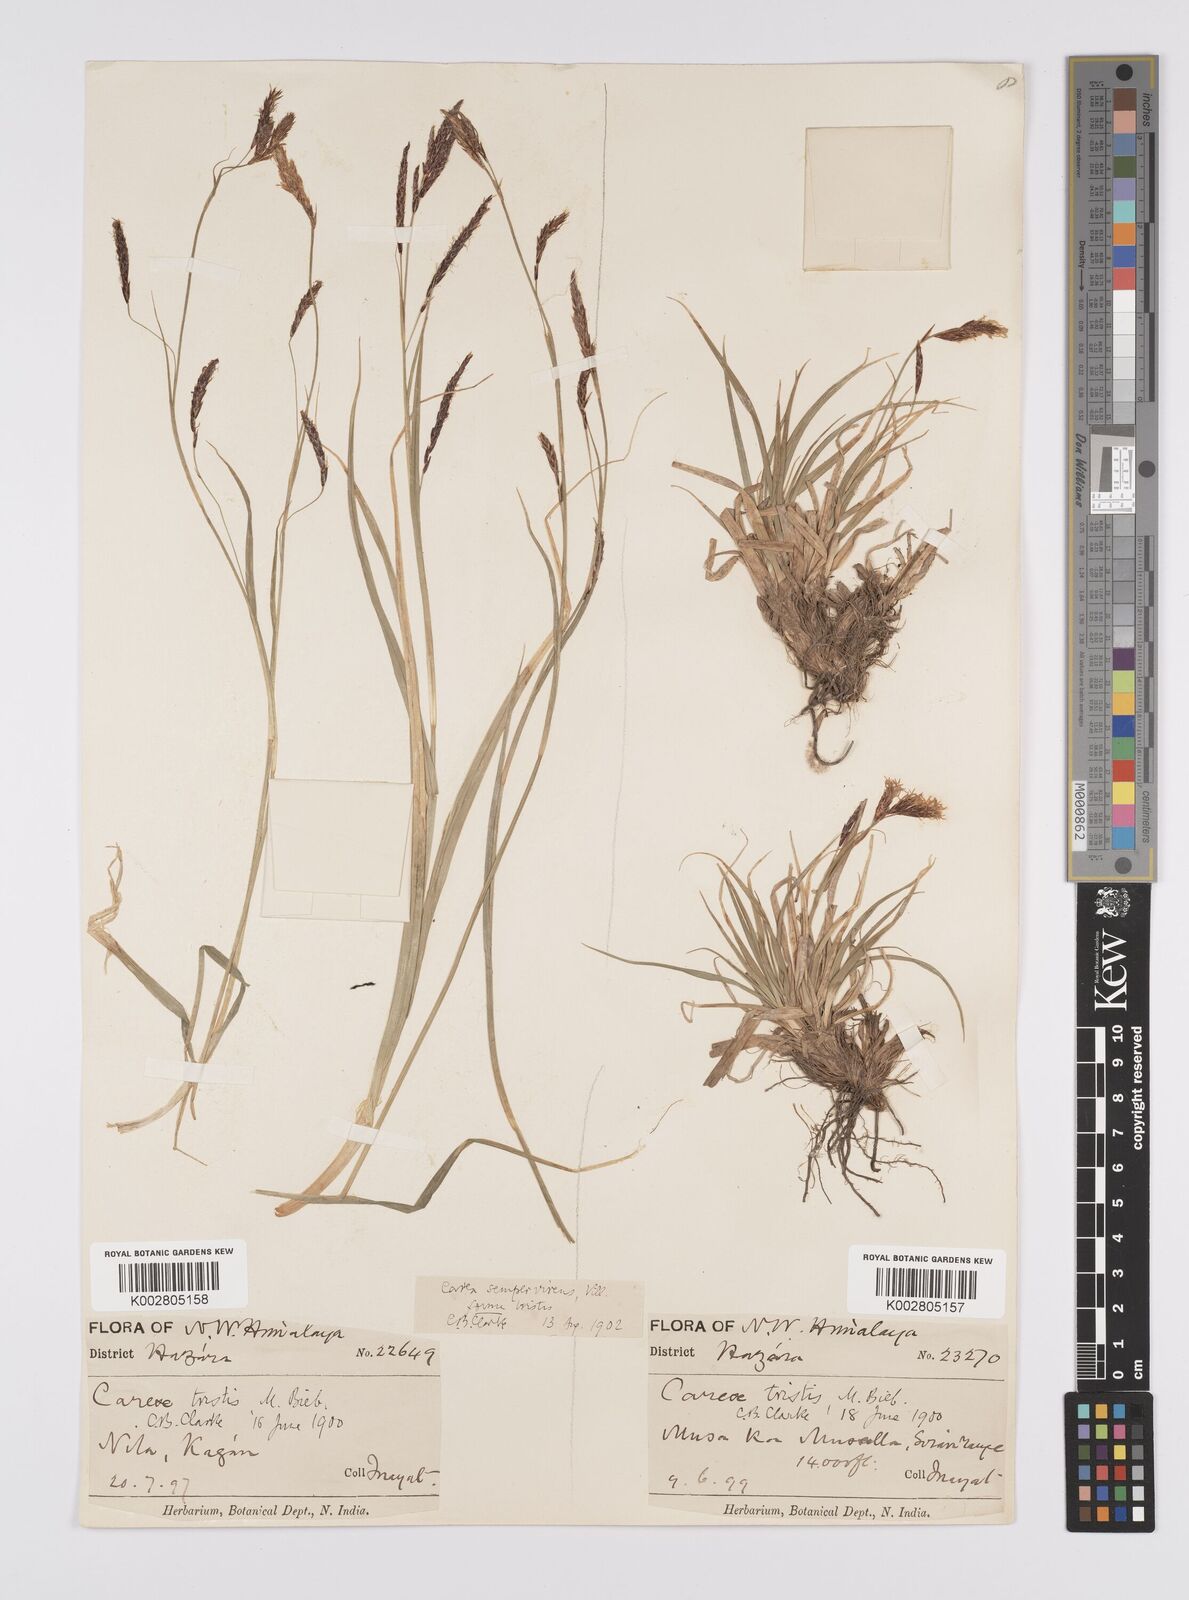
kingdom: Plantae
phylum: Tracheophyta
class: Liliopsida
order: Poales
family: Cyperaceae
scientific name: Cyperaceae
